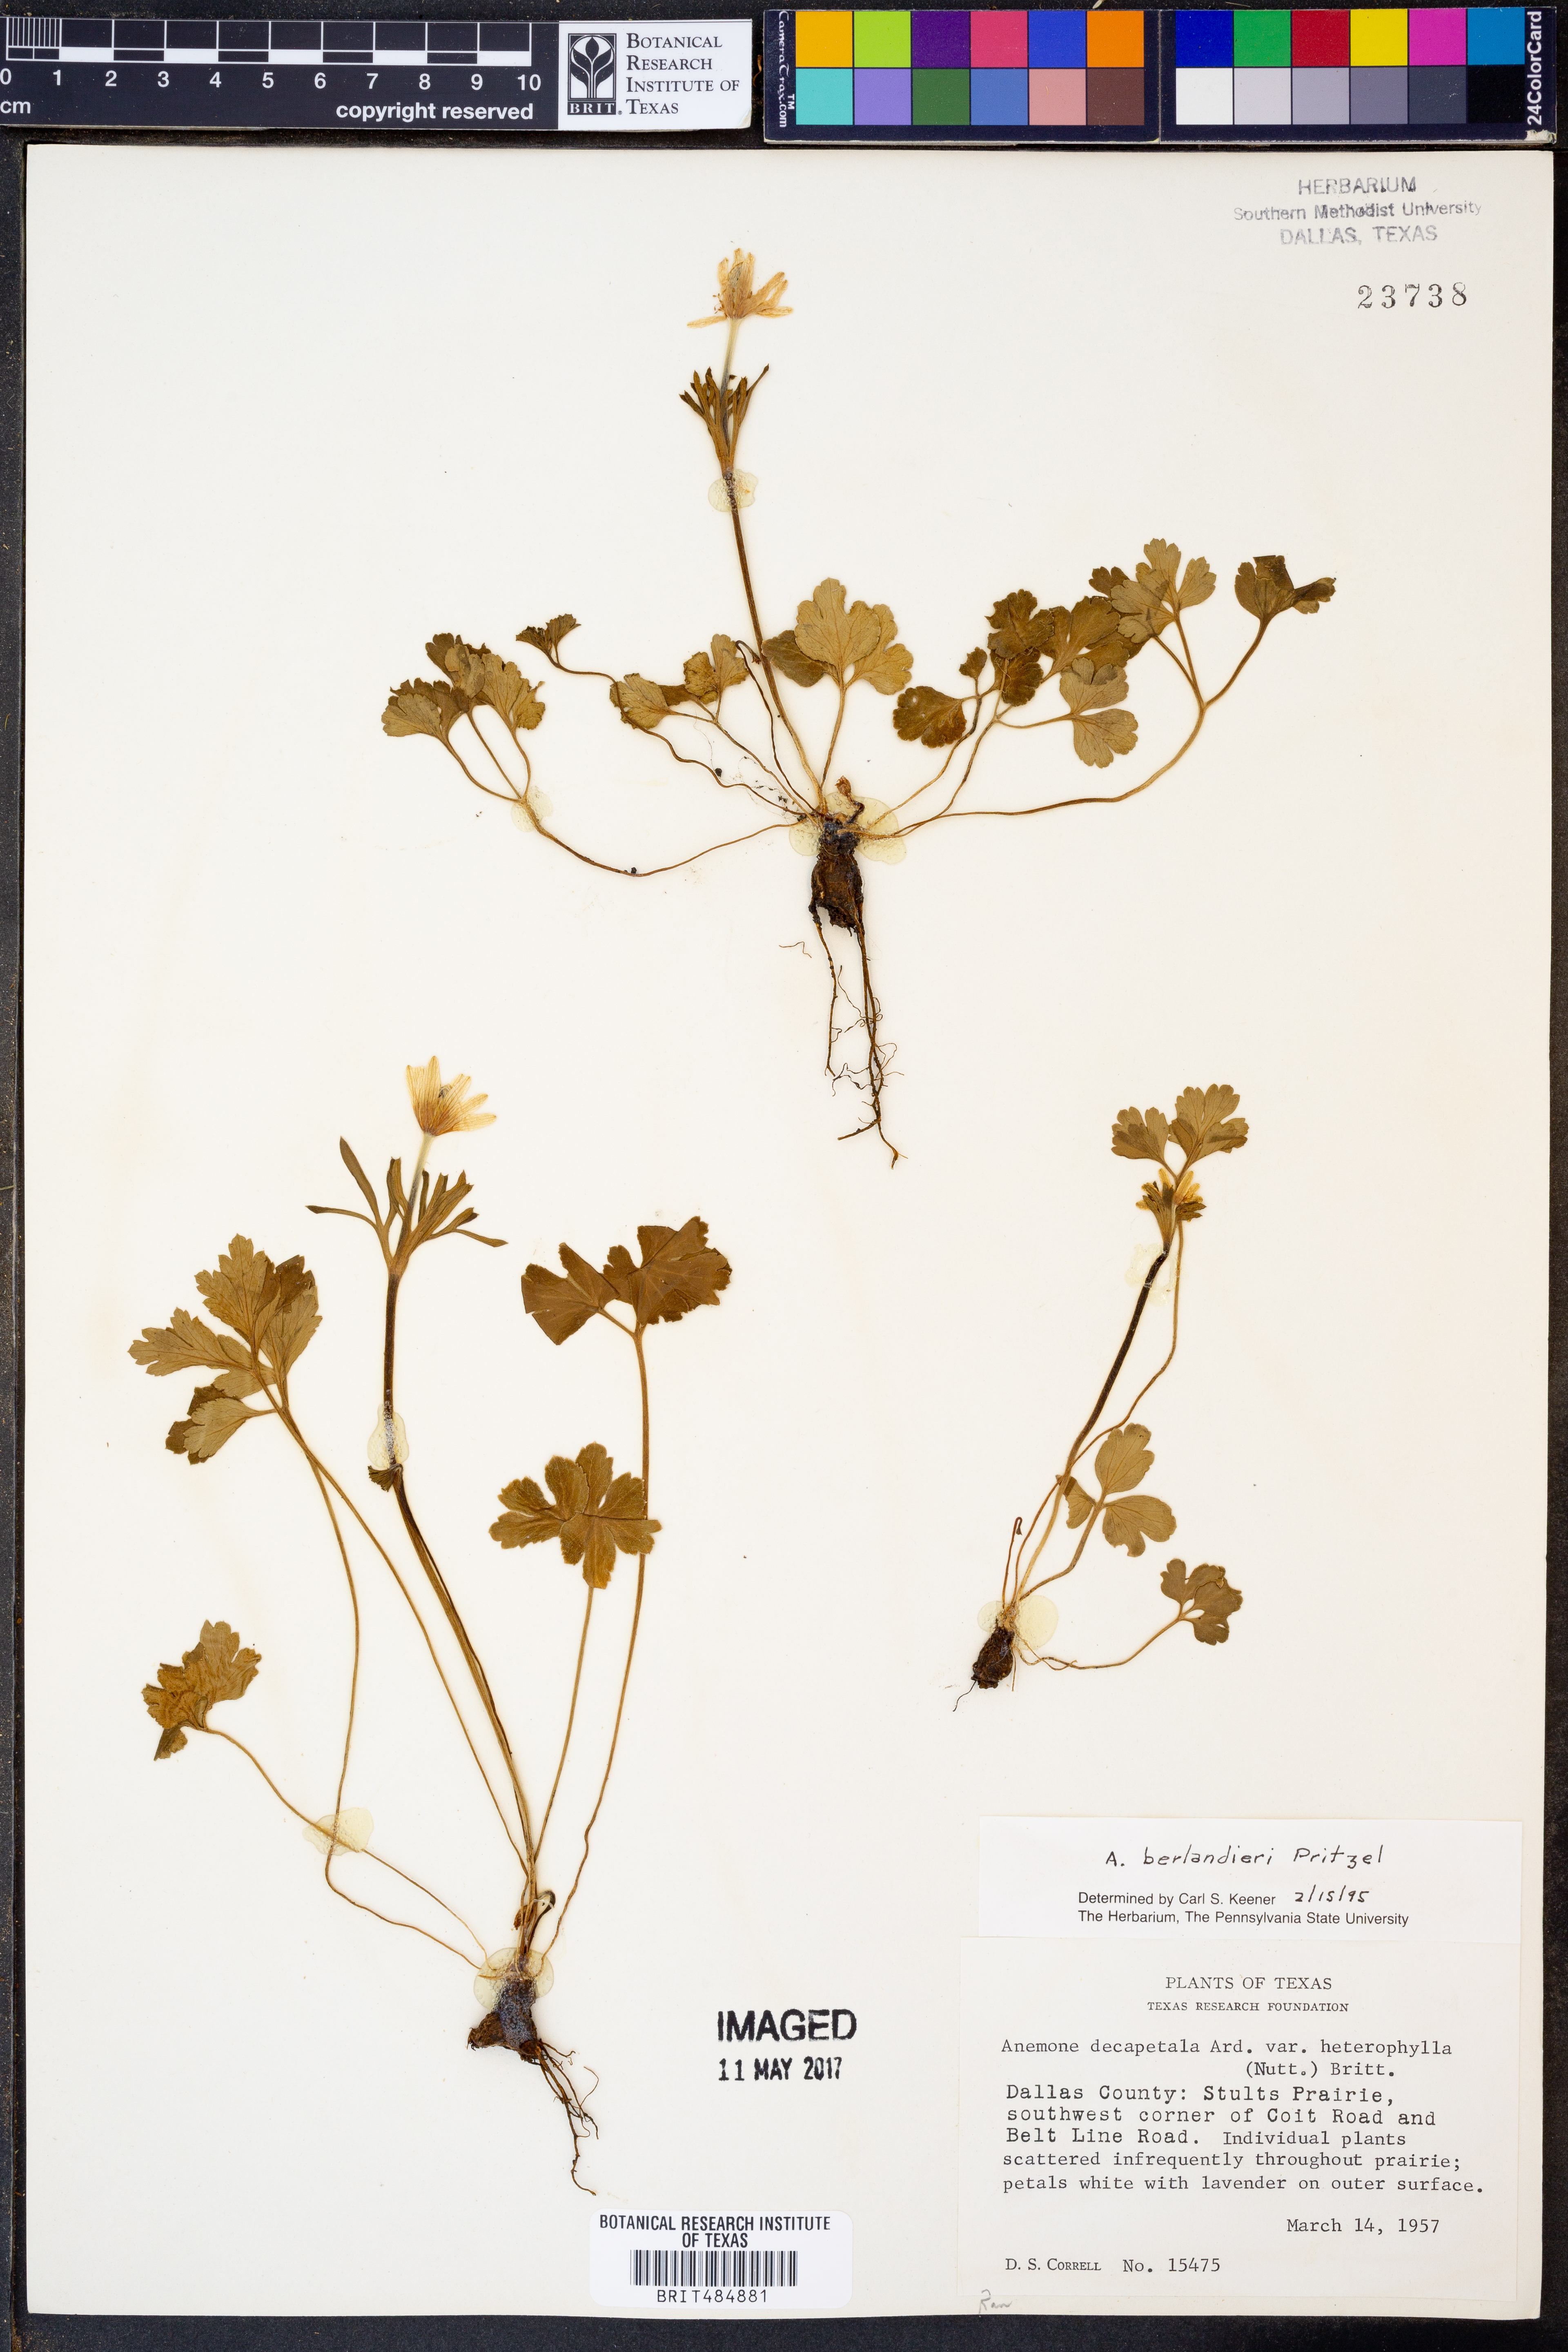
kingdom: Plantae
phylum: Tracheophyta
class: Magnoliopsida
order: Ranunculales
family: Ranunculaceae
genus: Anemone
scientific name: Anemone berlandieri
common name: Ten-petal anemone
